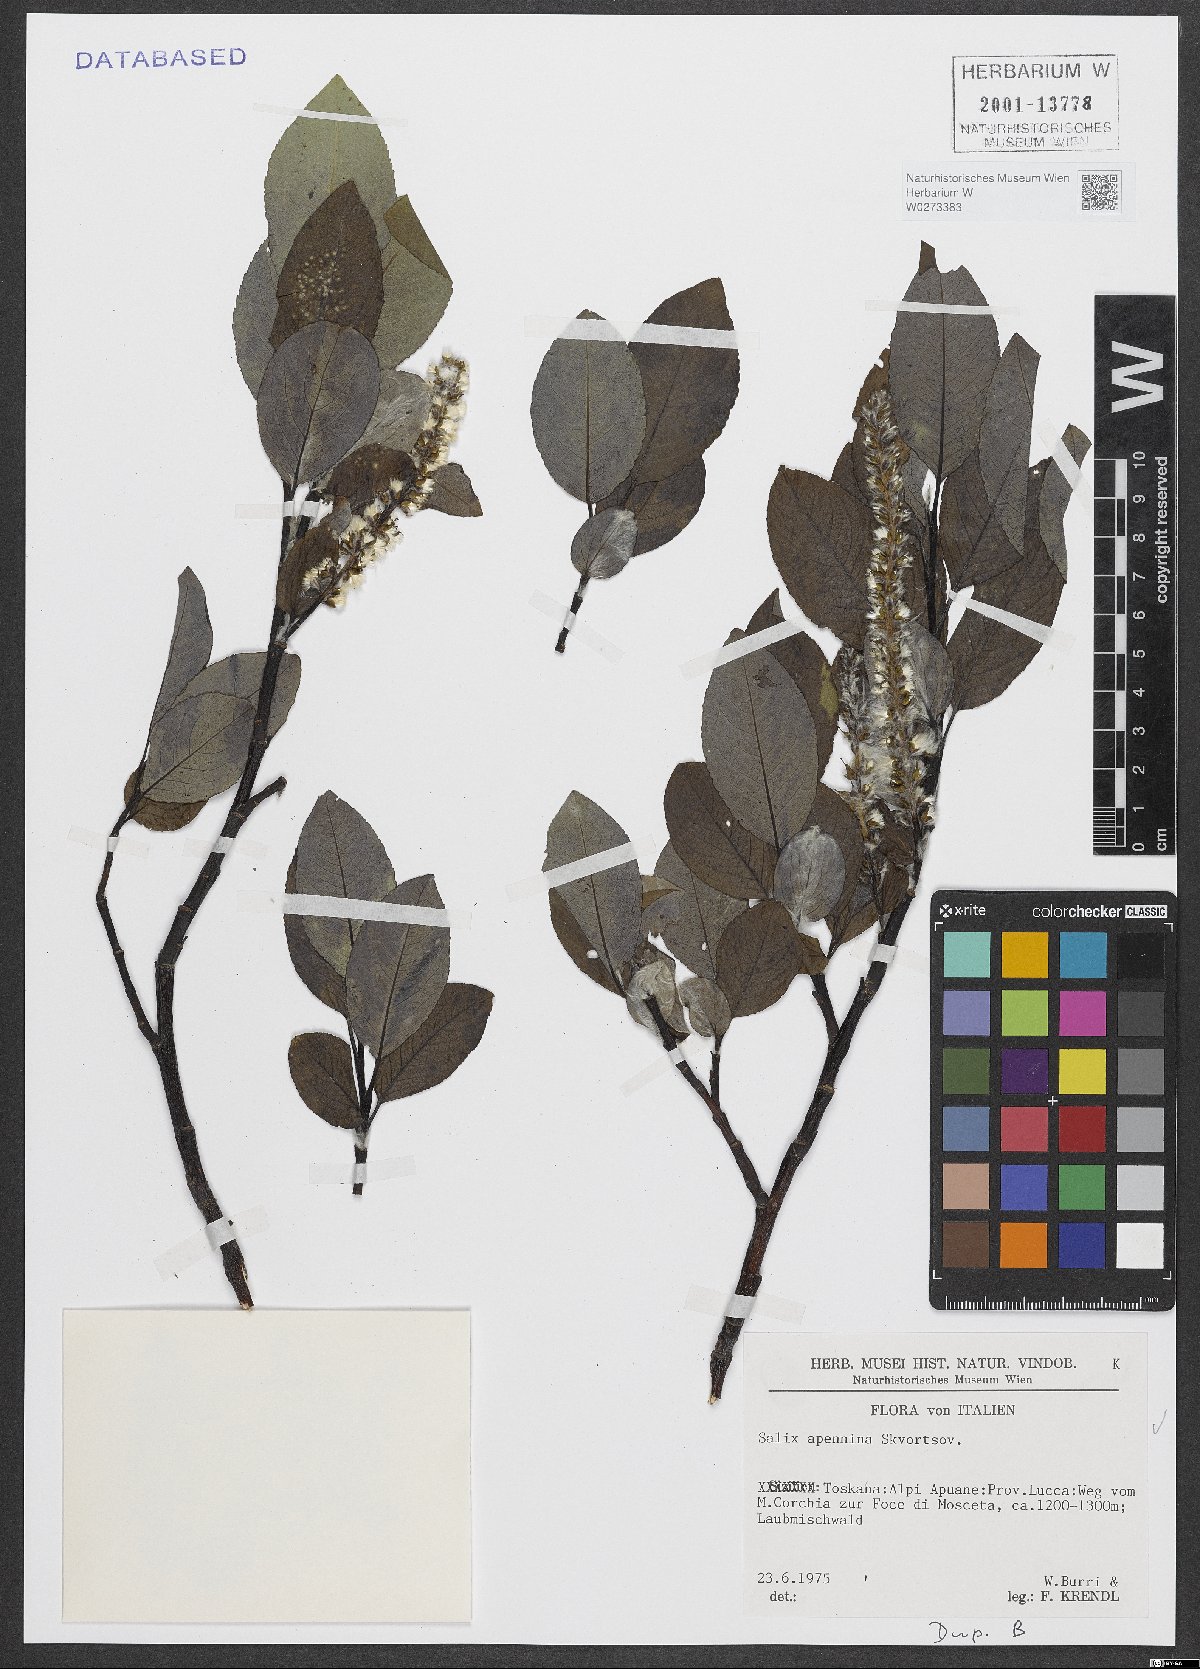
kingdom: Plantae
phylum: Tracheophyta
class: Magnoliopsida
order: Malpighiales
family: Salicaceae
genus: Salix
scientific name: Salix apennina
